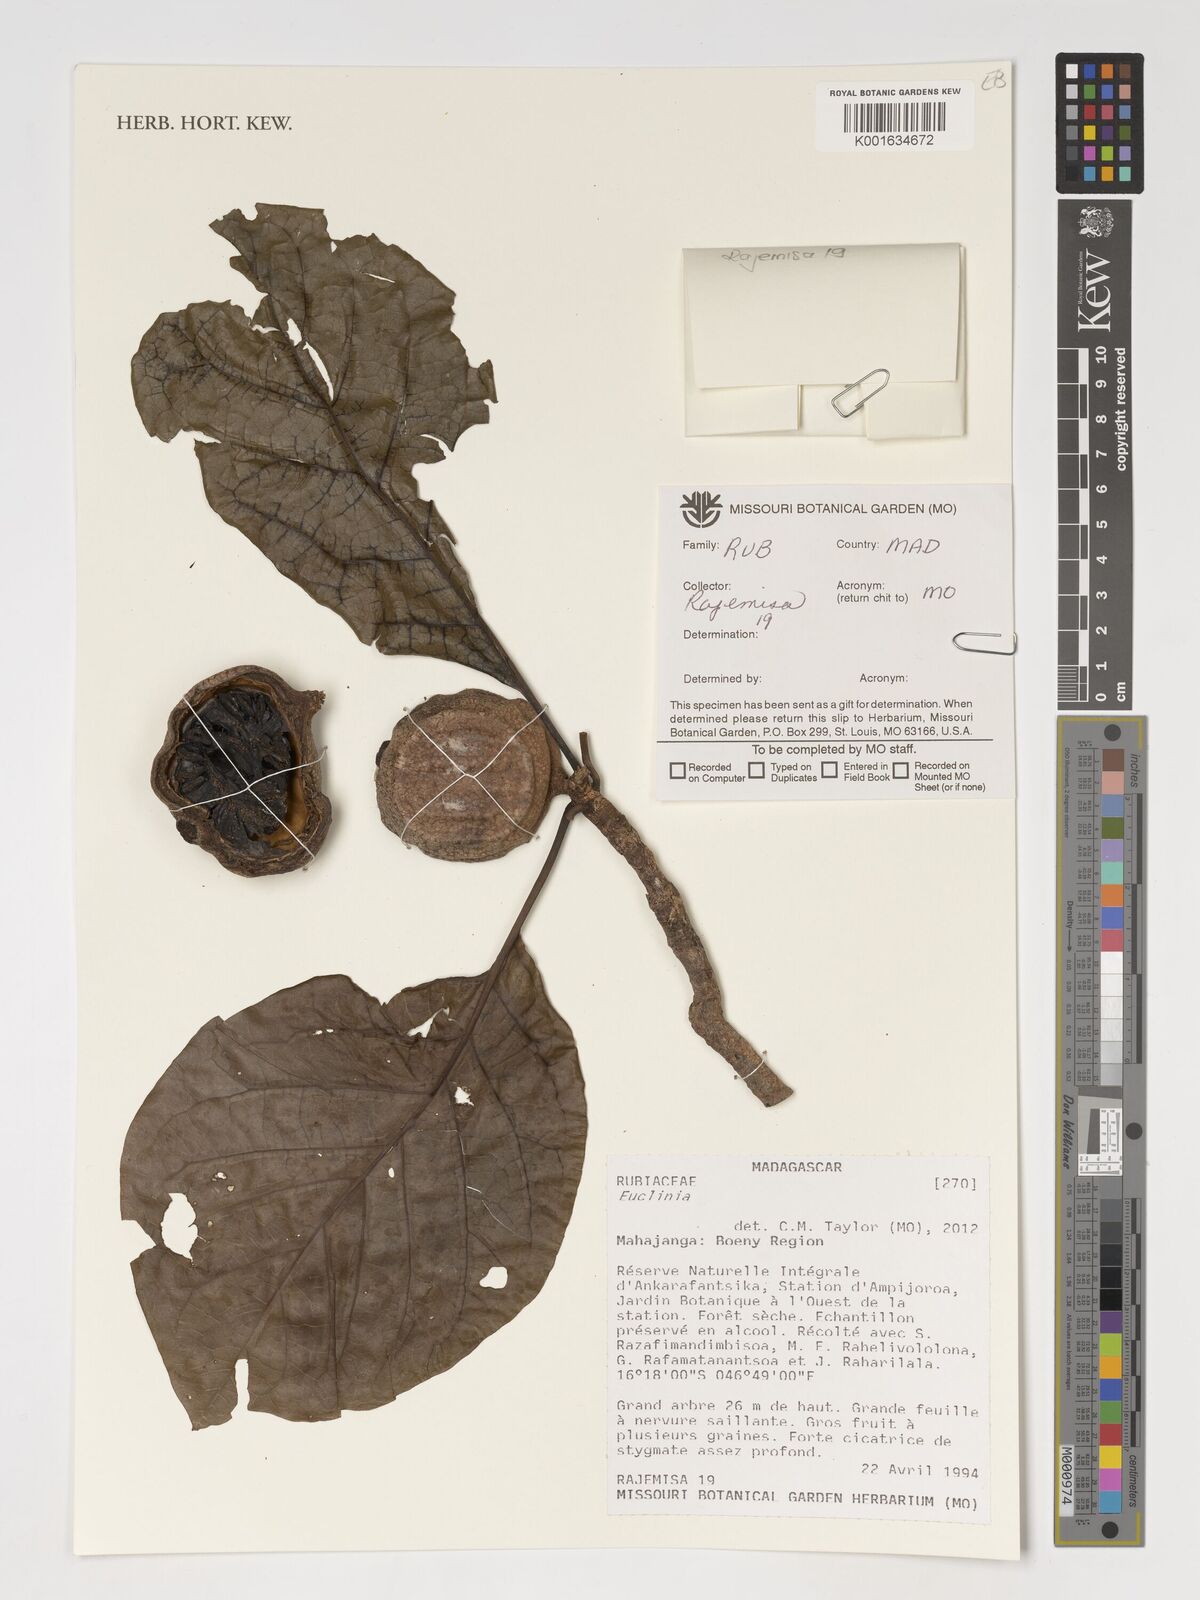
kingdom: Plantae
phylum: Tracheophyta
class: Magnoliopsida
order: Gentianales
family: Rubiaceae
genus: Euclinia
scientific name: Euclinia
